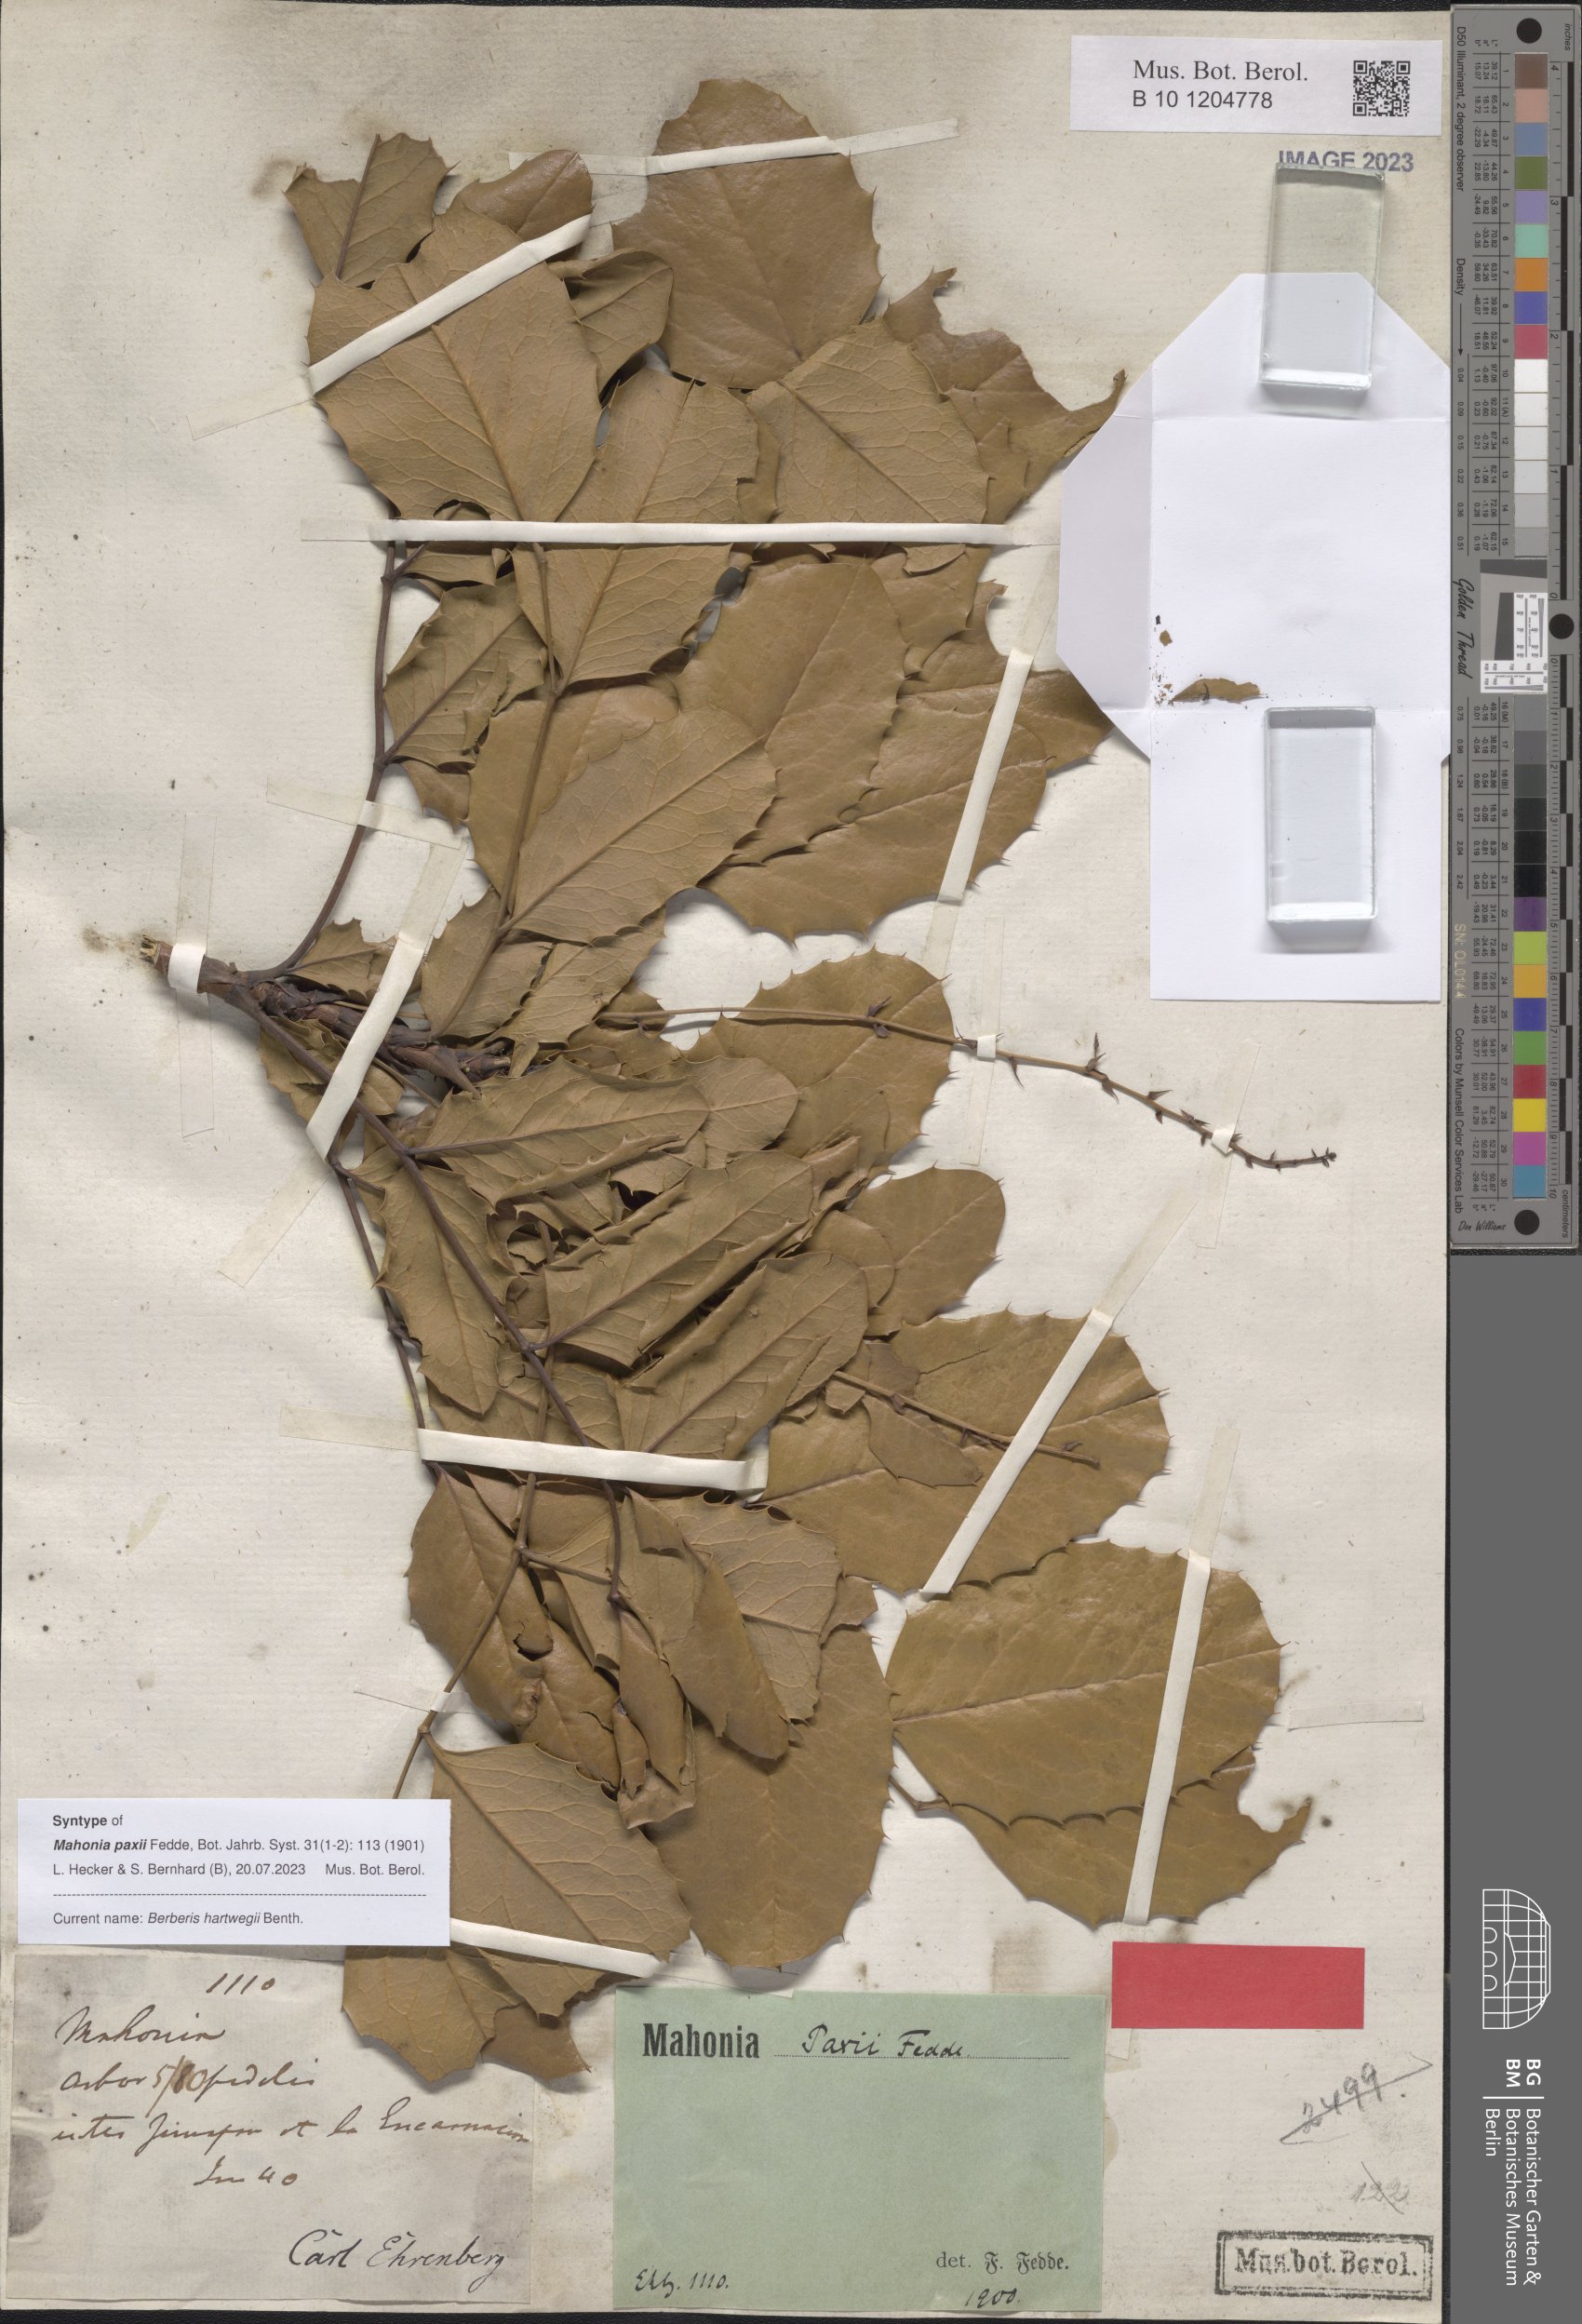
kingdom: Plantae
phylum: Tracheophyta
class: Magnoliopsida
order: Ranunculales
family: Berberidaceae
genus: Mahonia
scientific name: Mahonia hartwegii
